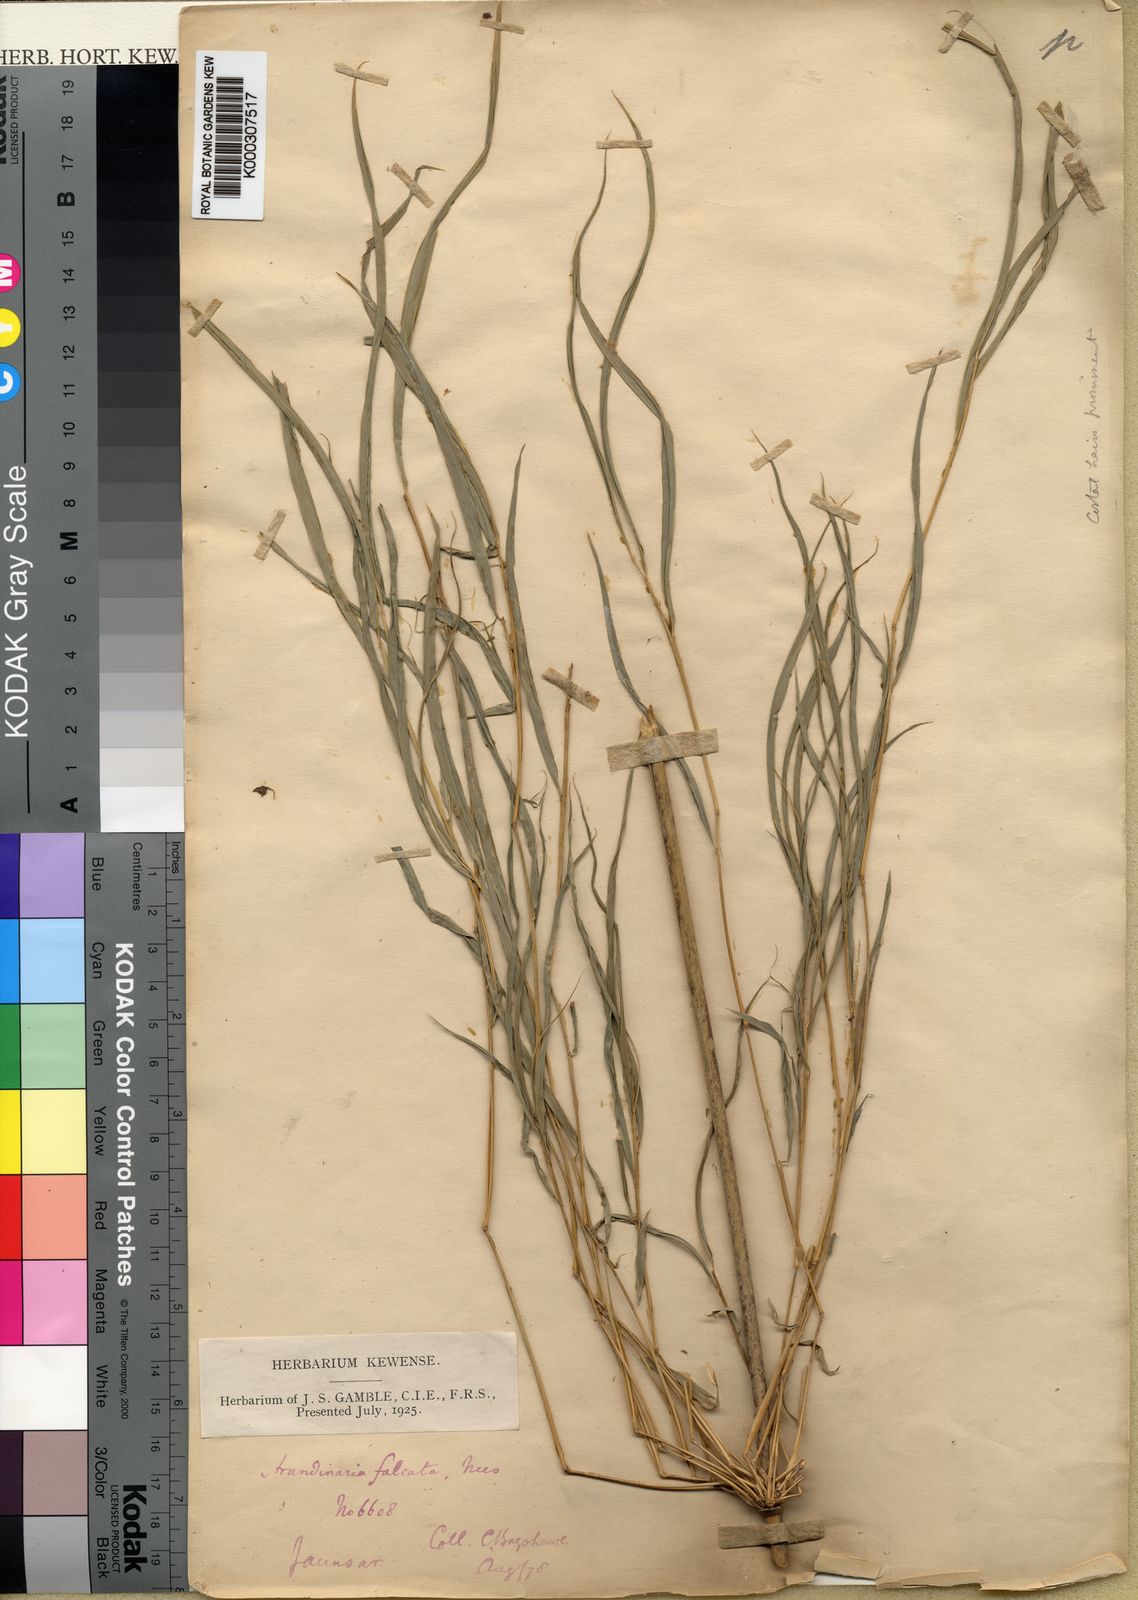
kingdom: Plantae
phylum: Tracheophyta
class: Liliopsida
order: Poales
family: Poaceae
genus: Drepanostachyum
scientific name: Drepanostachyum falcatum
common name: Himalayan bamboo
